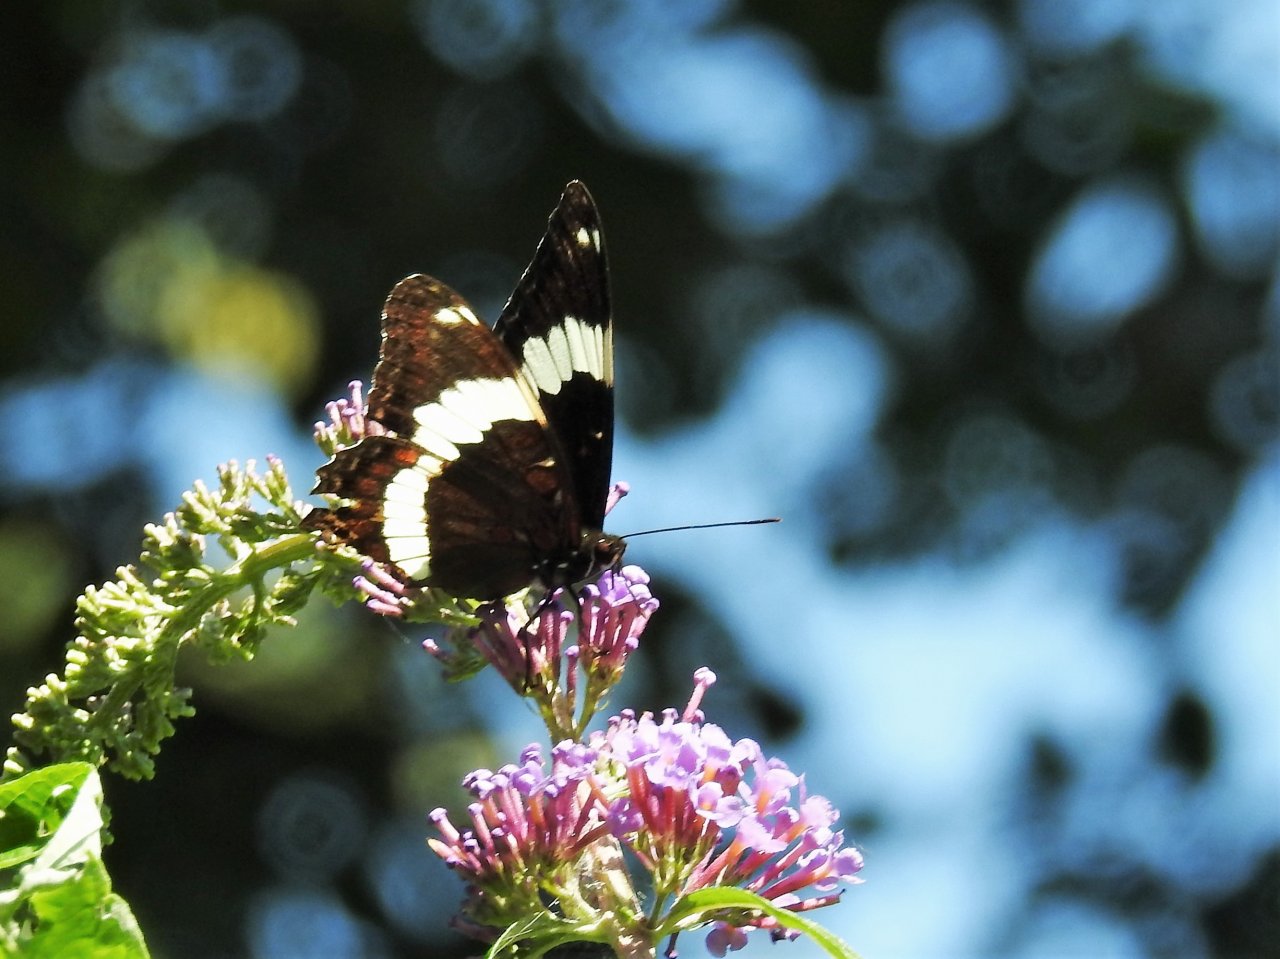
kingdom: Animalia
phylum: Arthropoda
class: Insecta
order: Lepidoptera
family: Nymphalidae
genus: Limenitis
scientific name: Limenitis arthemis
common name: Red-spotted Admiral
